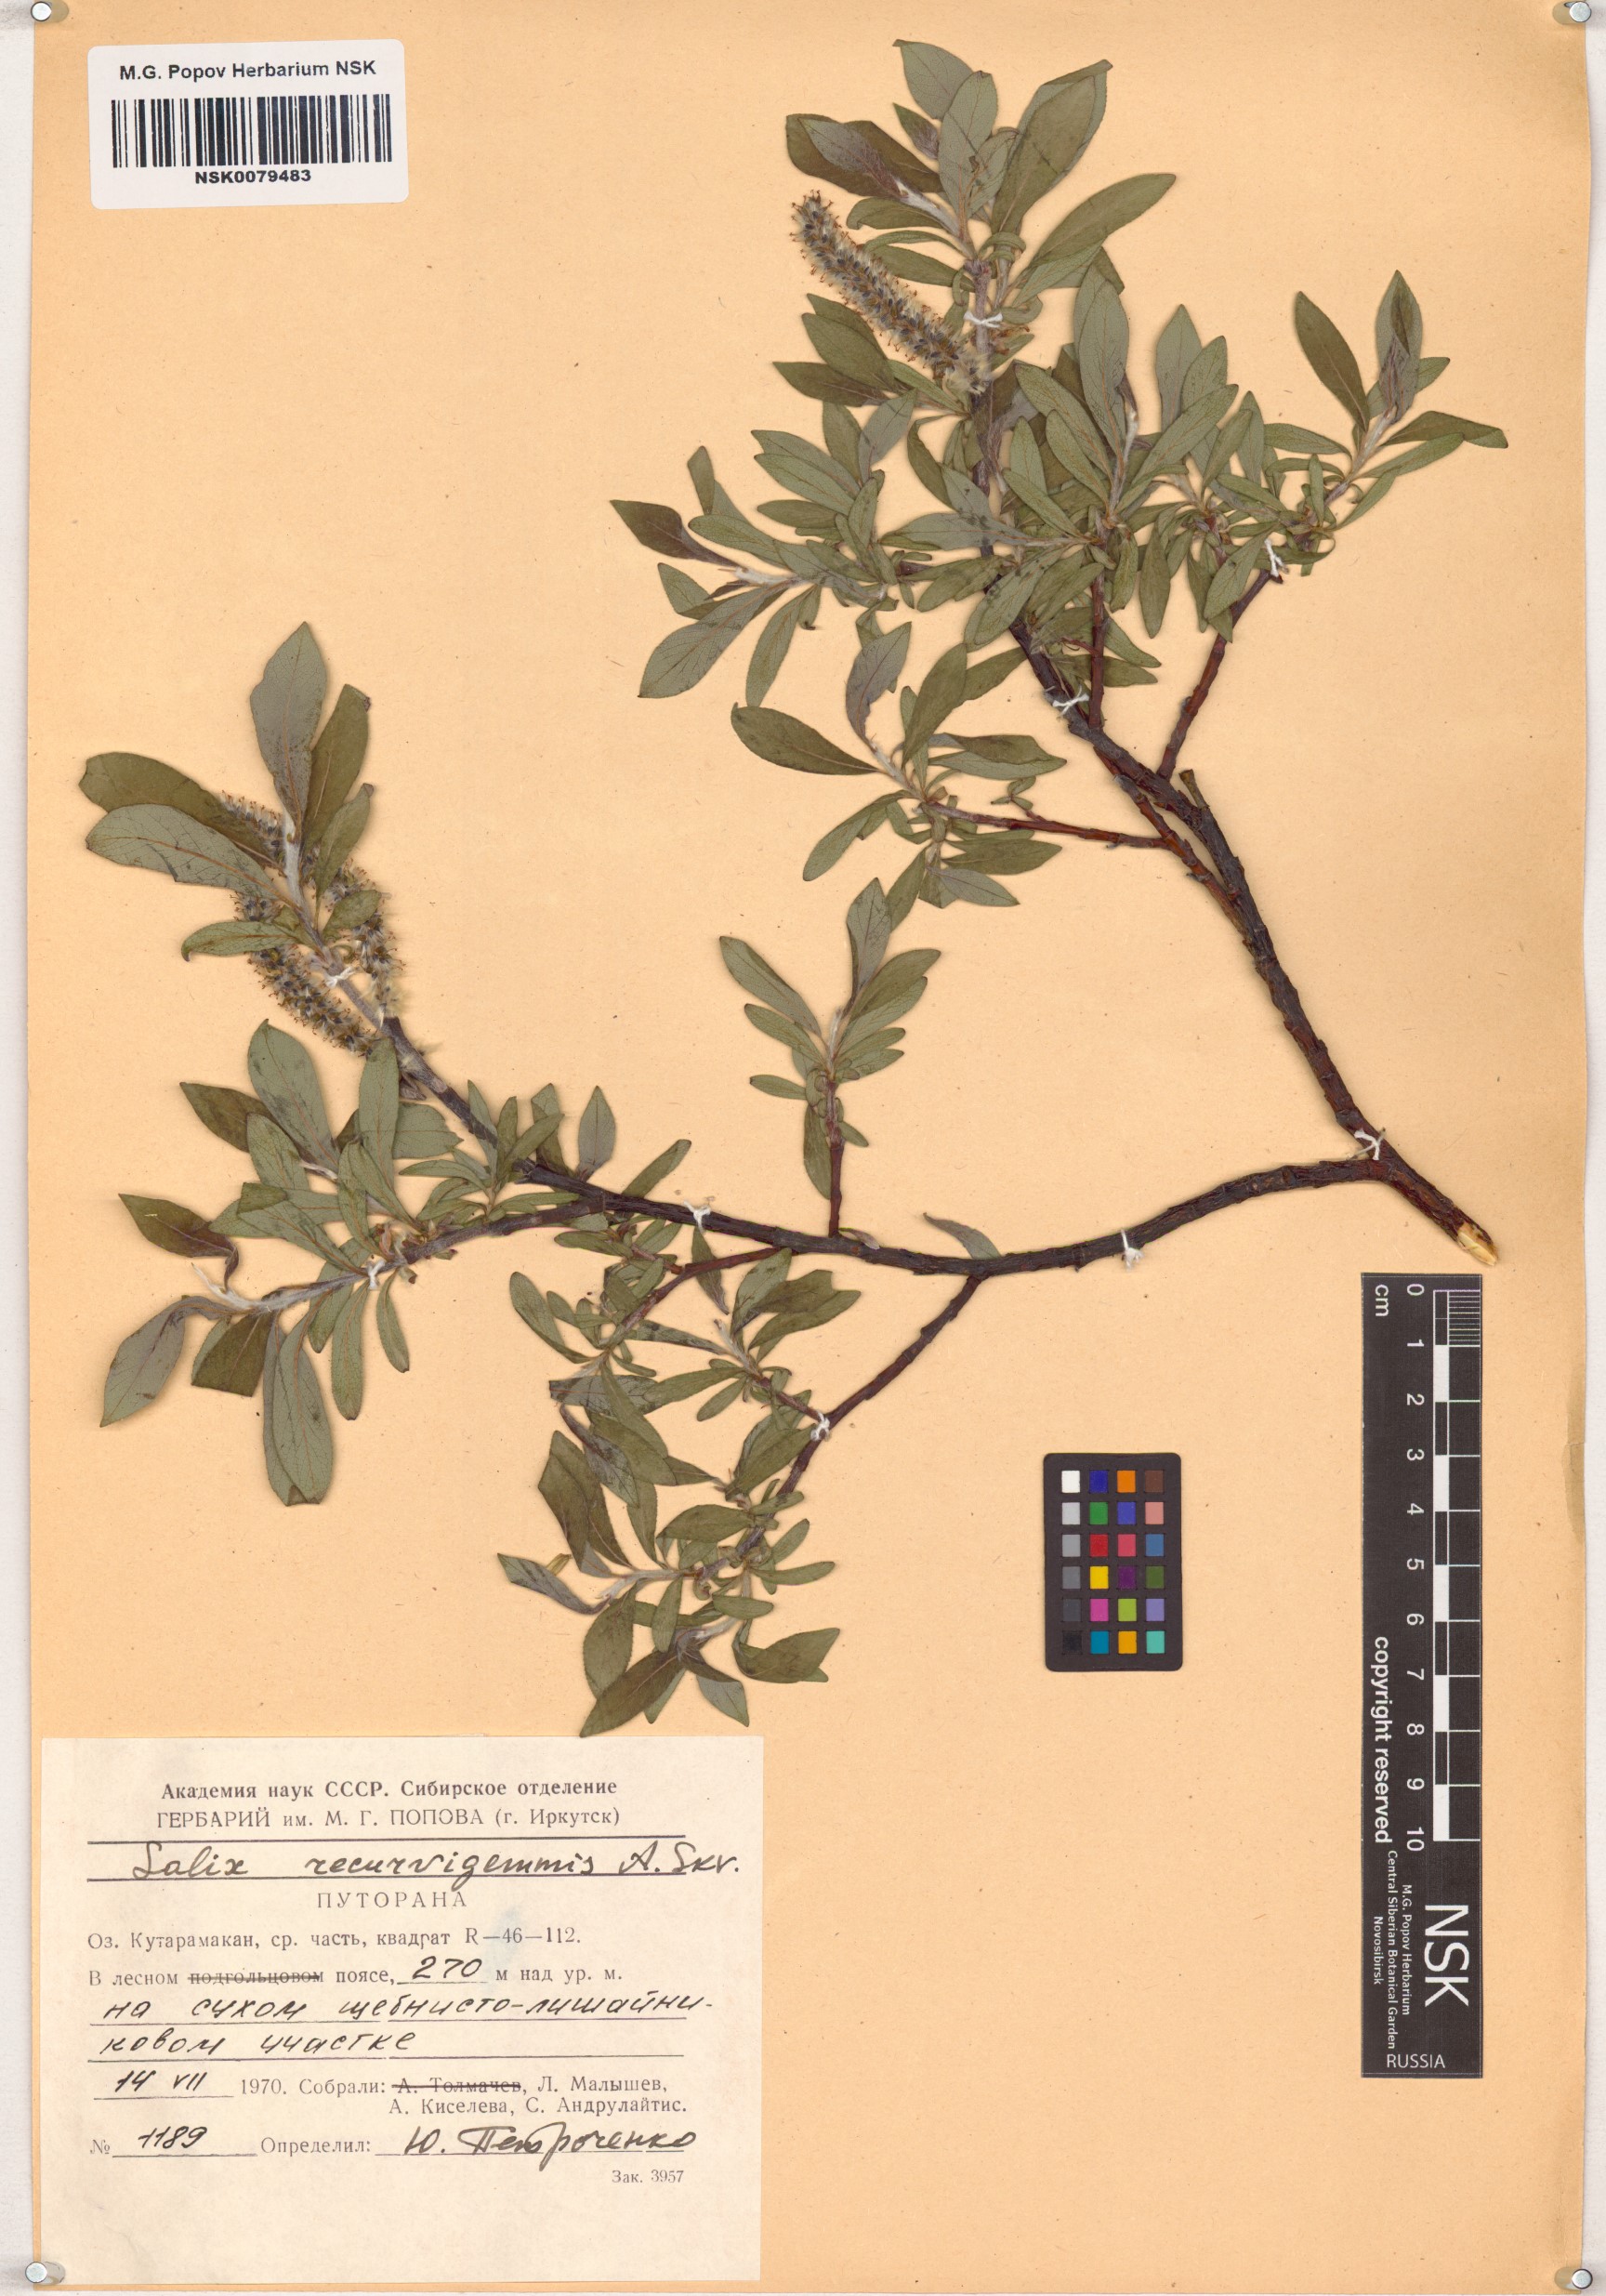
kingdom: Plantae
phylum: Tracheophyta
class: Magnoliopsida
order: Malpighiales
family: Salicaceae
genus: Salix
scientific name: Salix recurvigemmata
